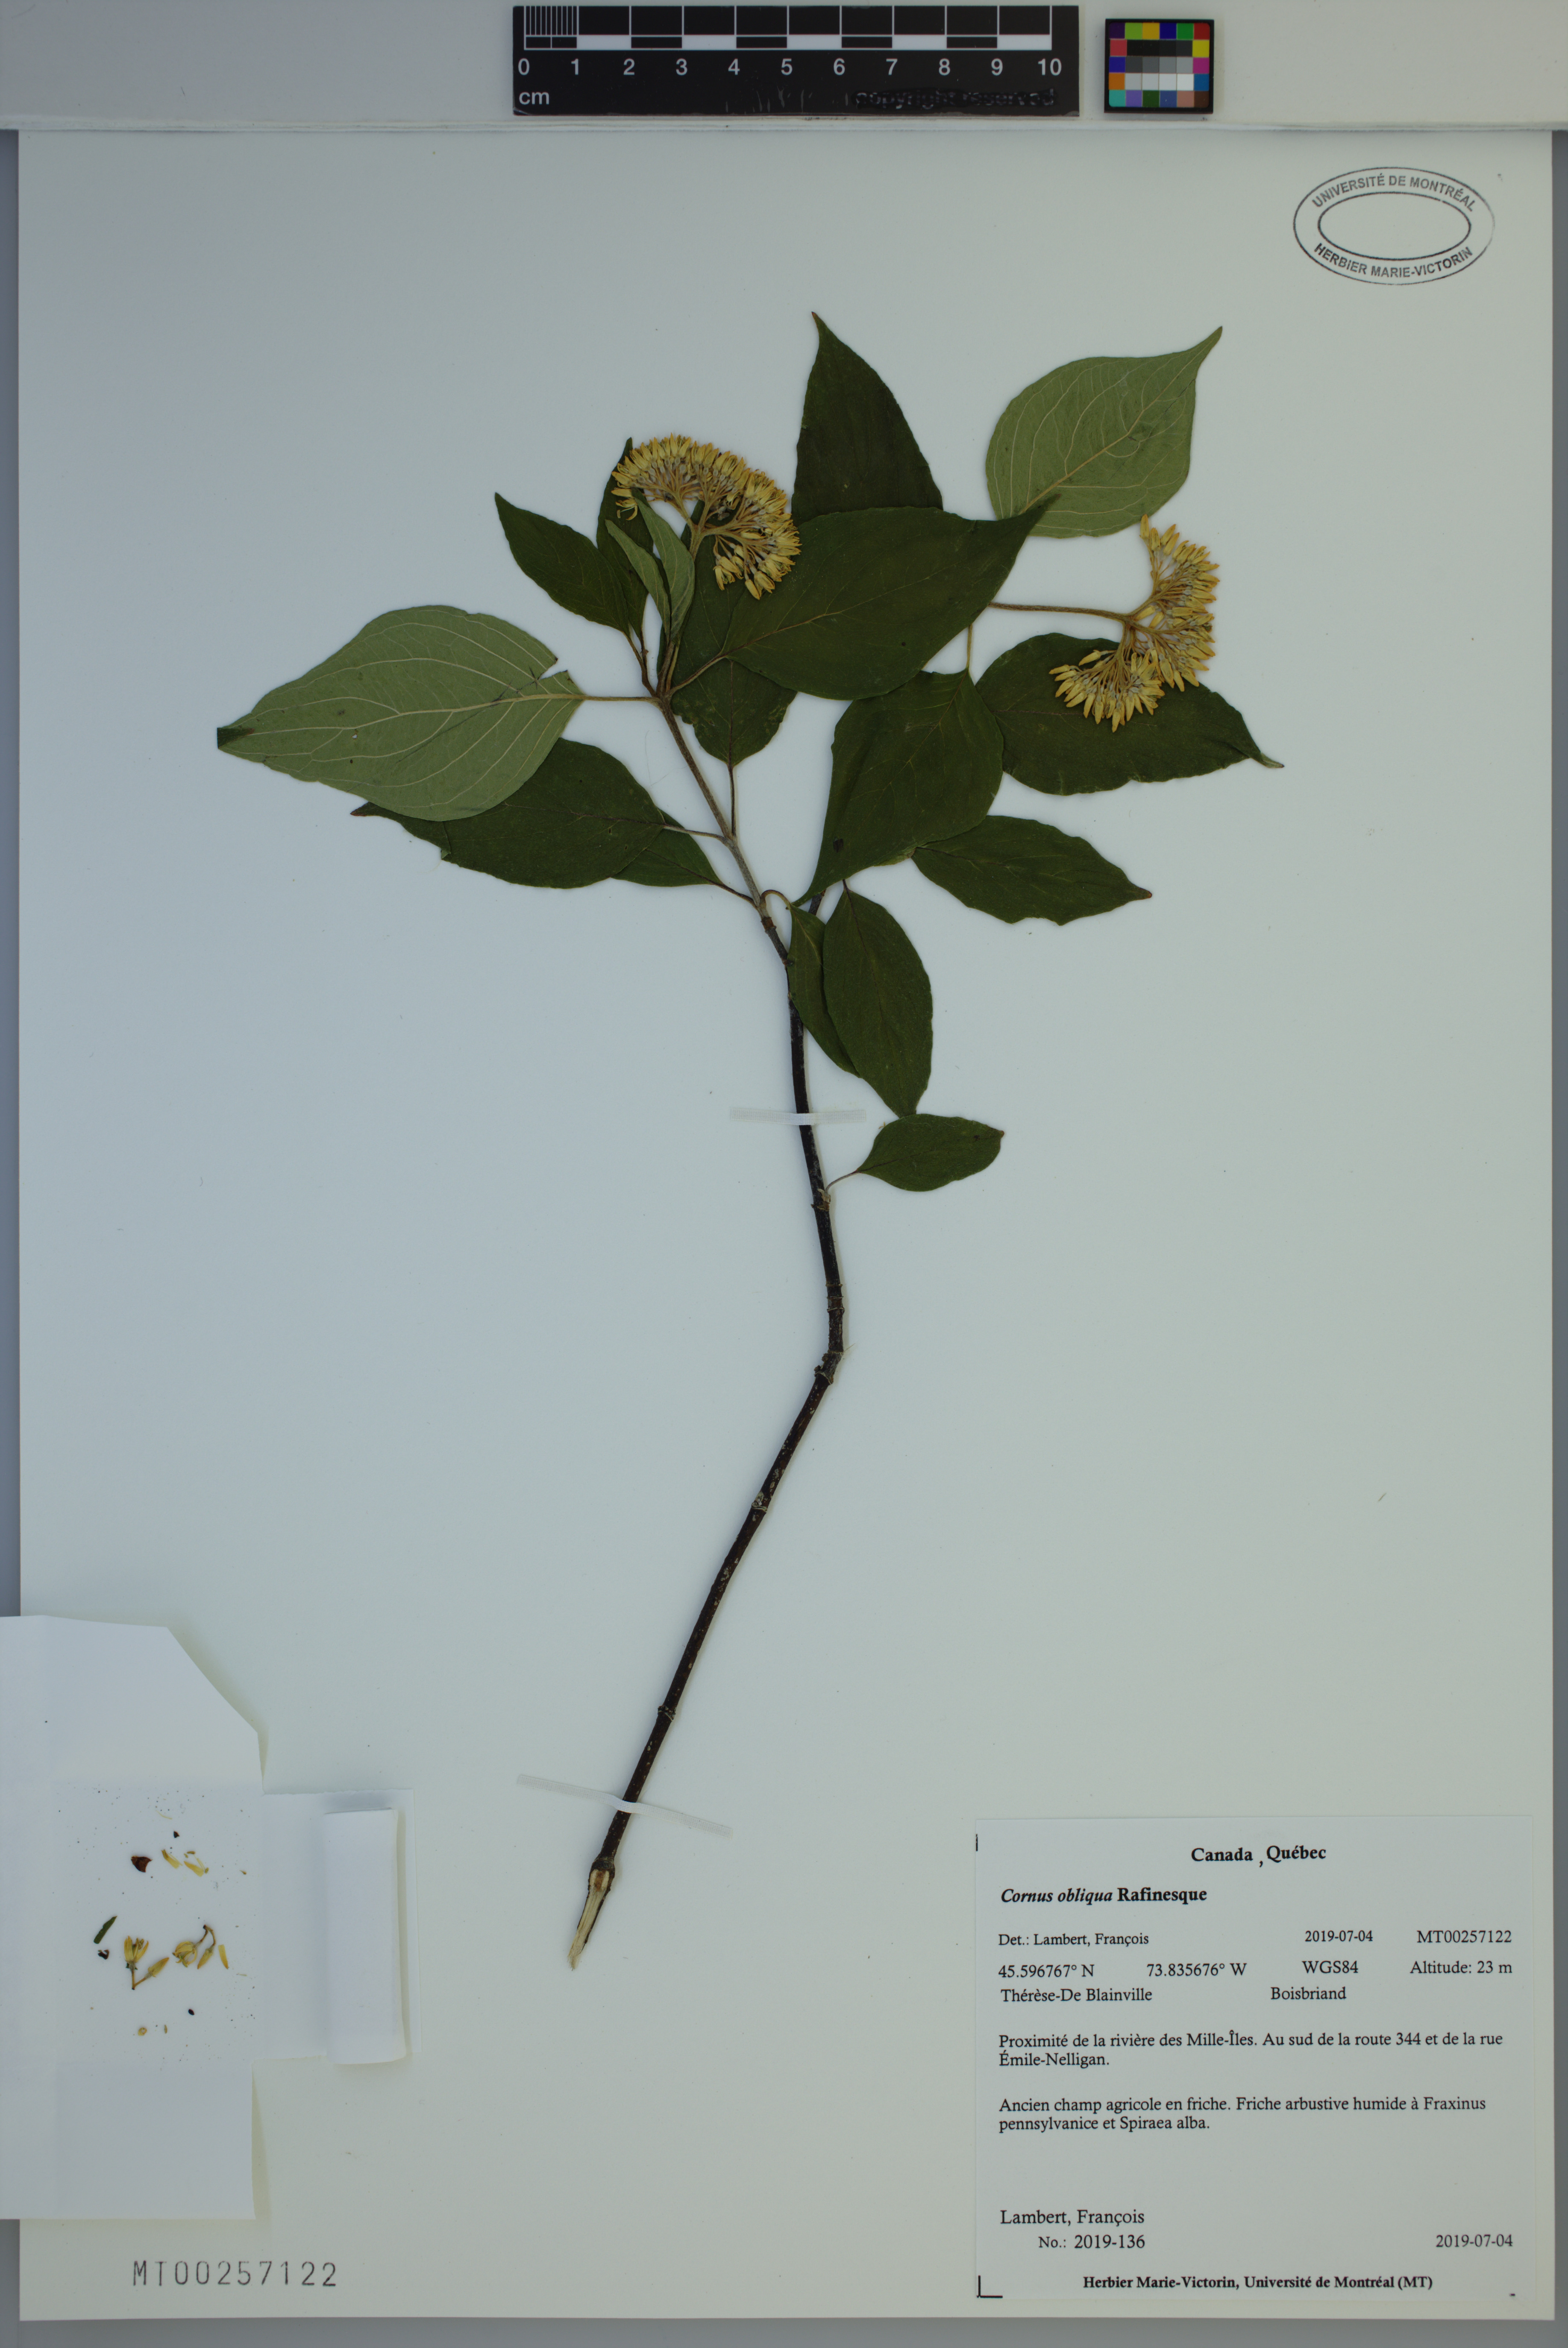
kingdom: Plantae
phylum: Tracheophyta
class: Magnoliopsida
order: Cornales
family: Cornaceae
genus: Cornus
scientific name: Cornus obliqua
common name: Pale dogwood
